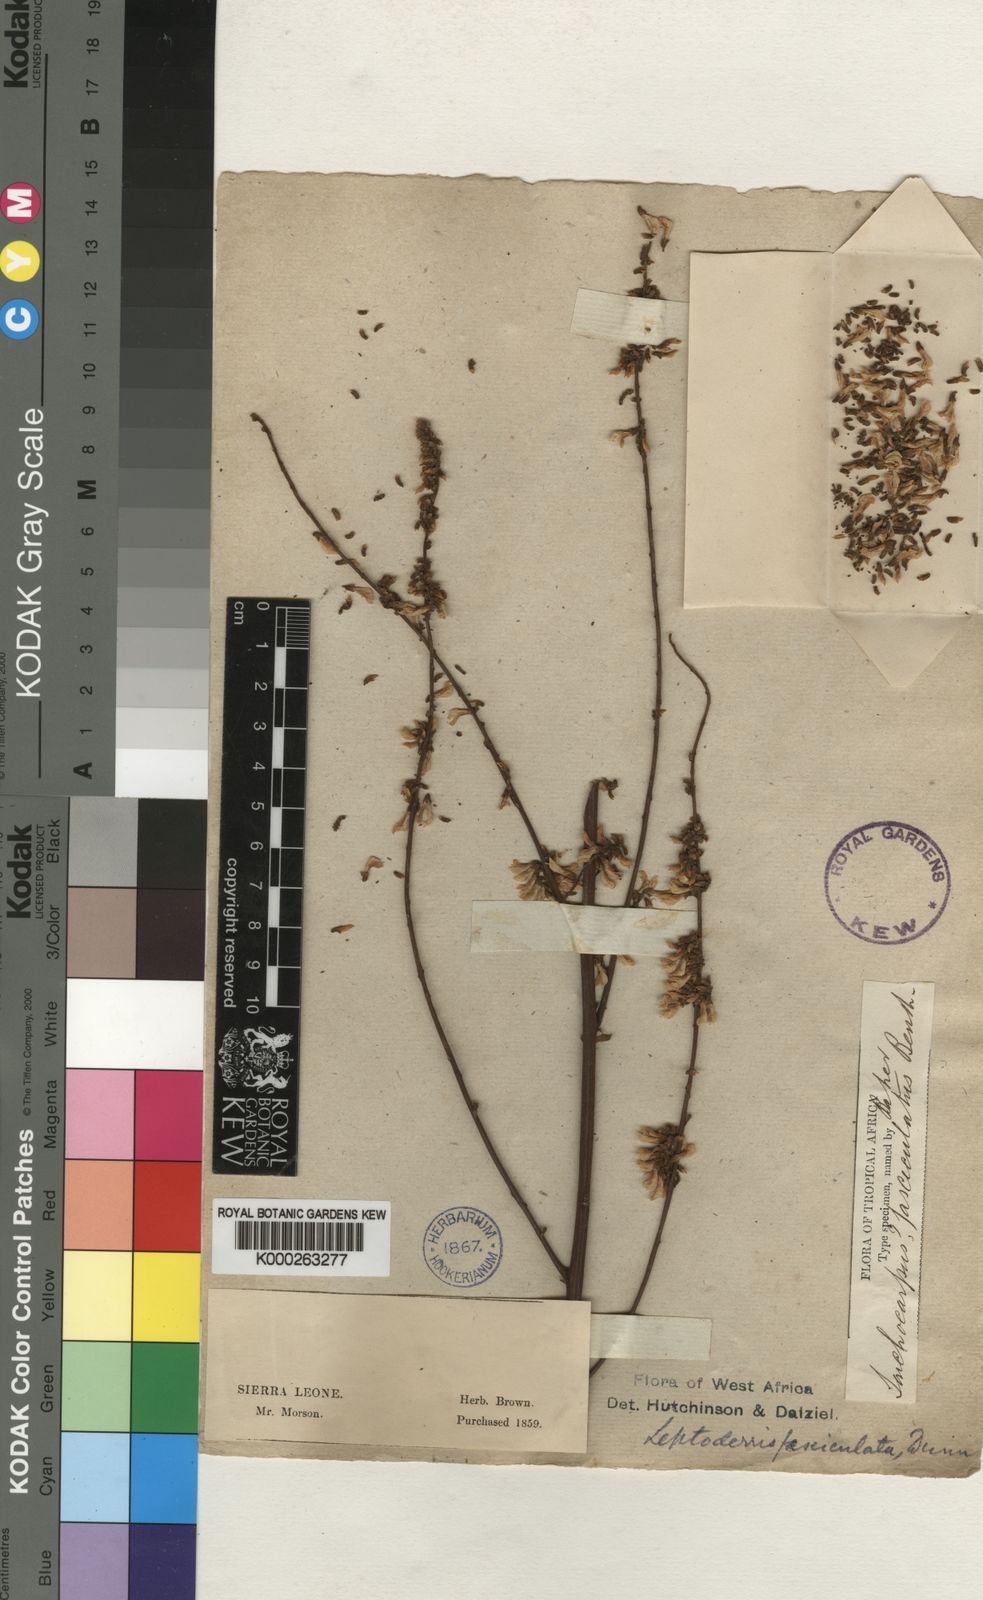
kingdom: Plantae
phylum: Tracheophyta
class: Magnoliopsida
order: Fabales
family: Fabaceae
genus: Leptoderris
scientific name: Leptoderris fasciculata
